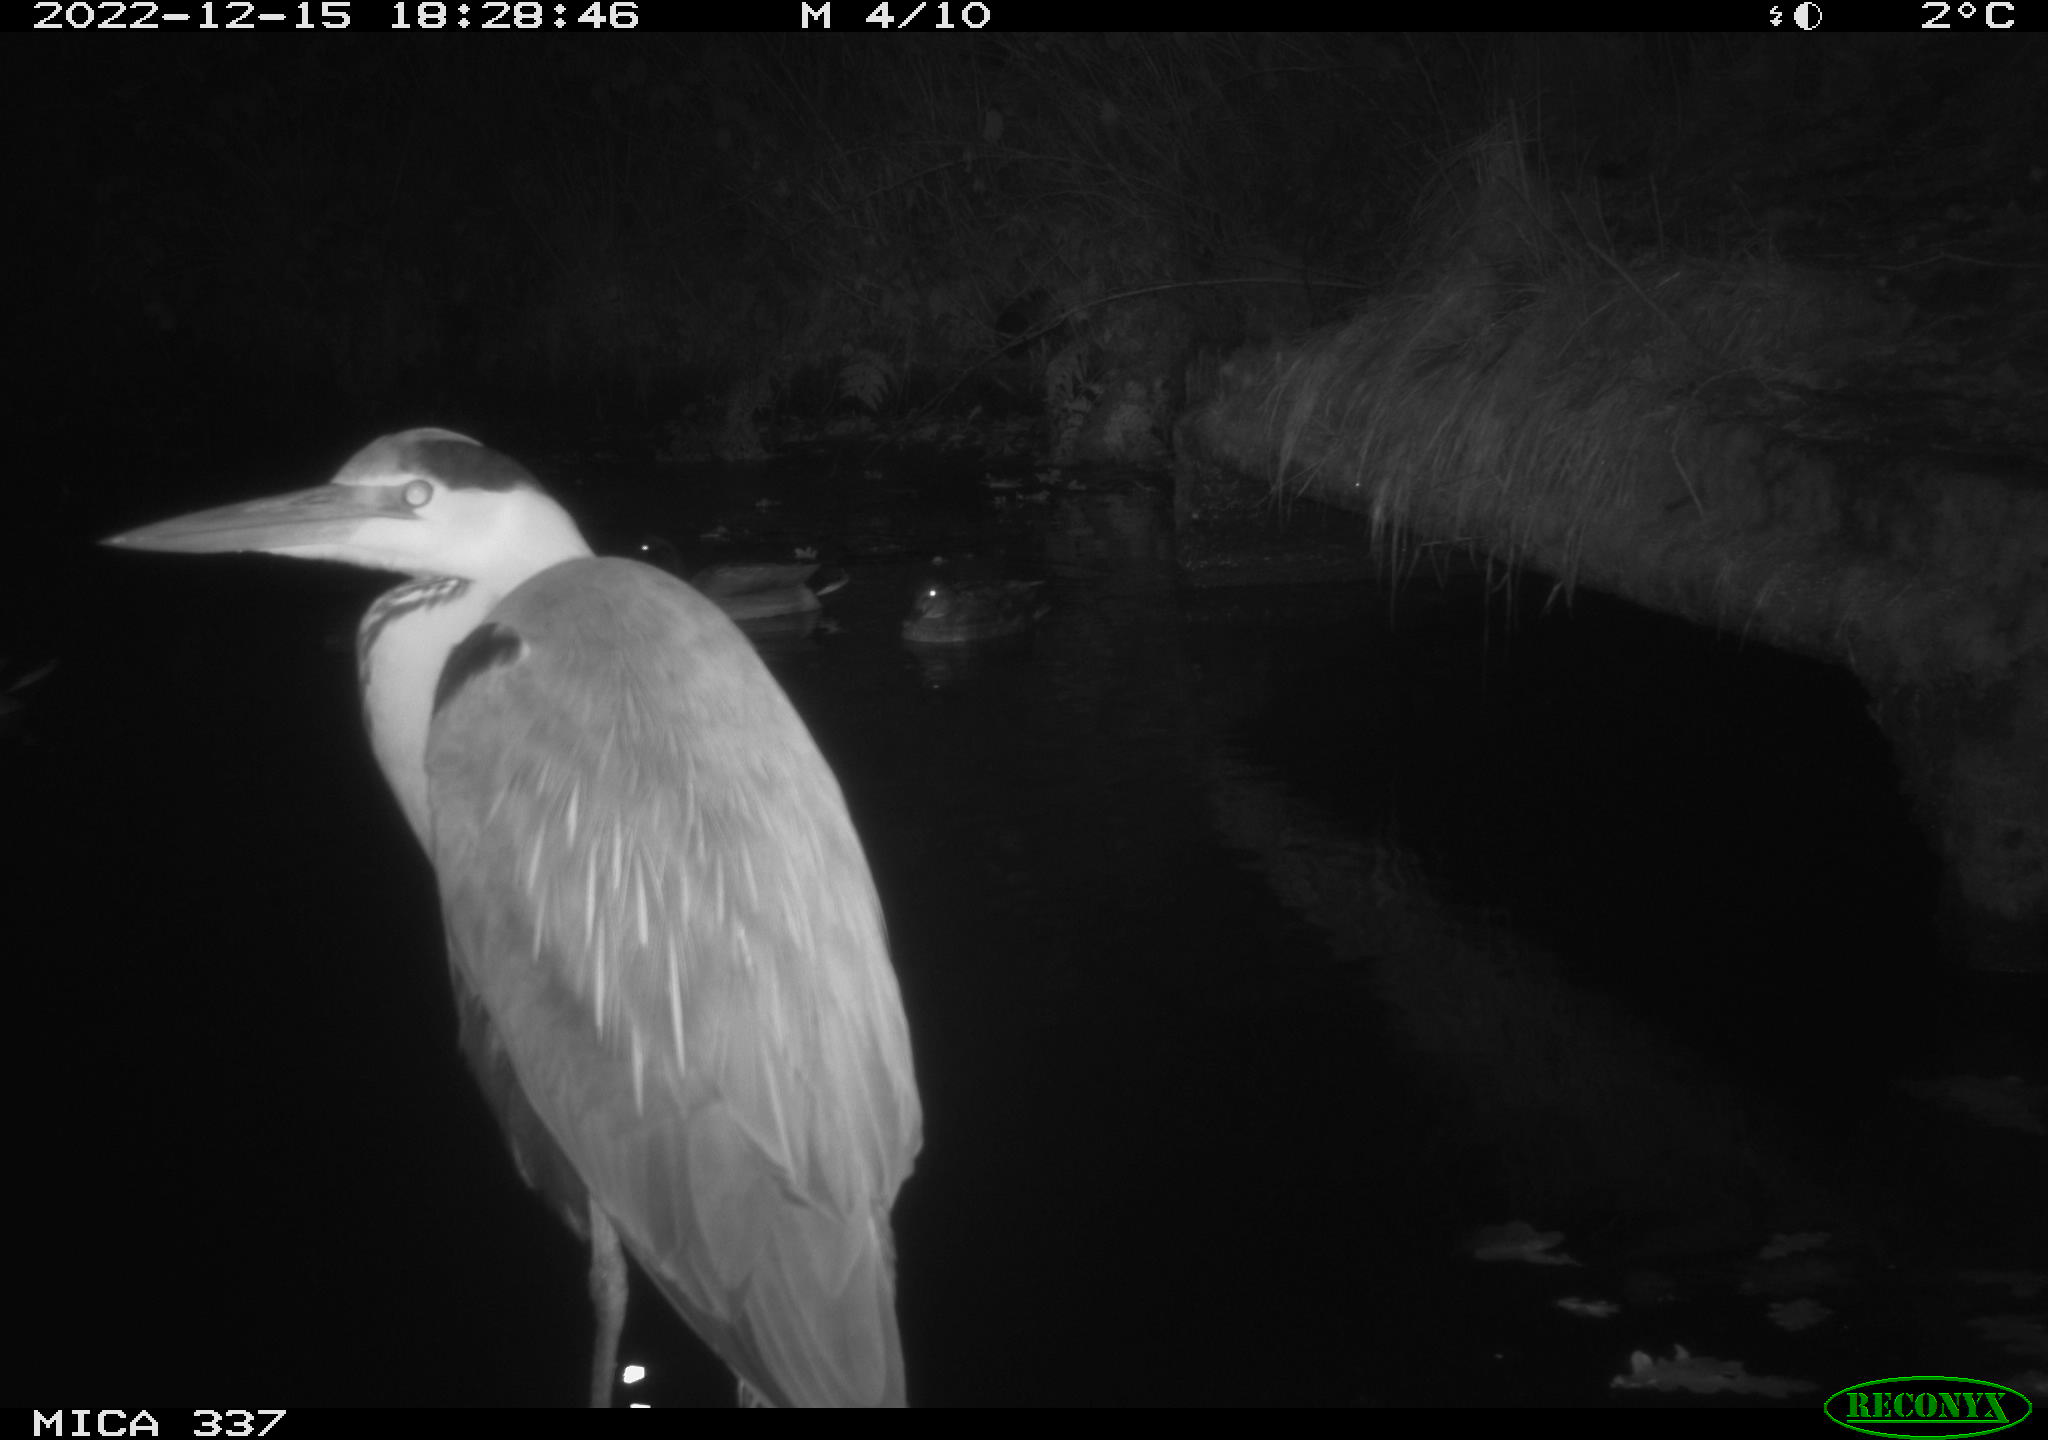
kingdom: Animalia
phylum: Chordata
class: Aves
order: Anseriformes
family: Anatidae
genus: Anas
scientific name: Anas
